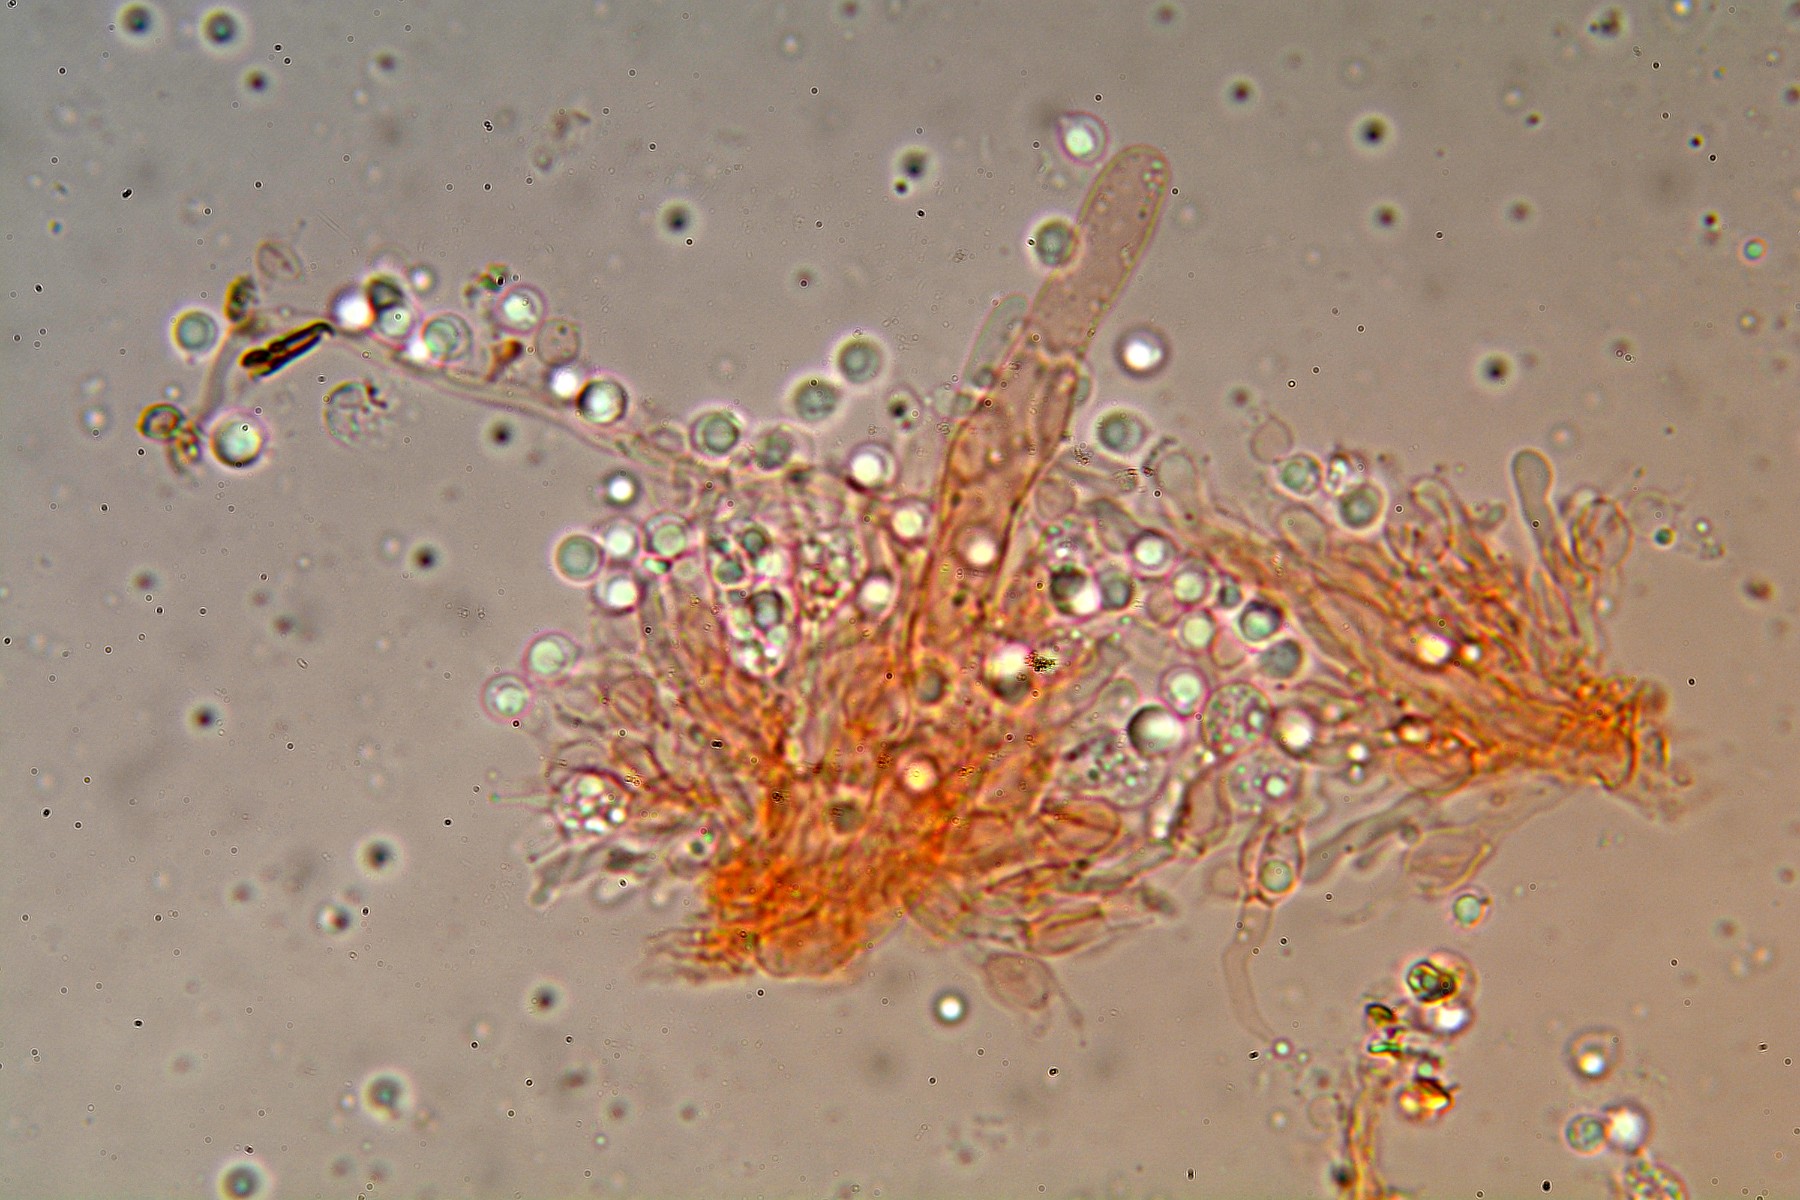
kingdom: Fungi
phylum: Basidiomycota
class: Agaricomycetes
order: Auriculariales
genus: Mycostilla
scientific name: Mycostilla vermiformis
